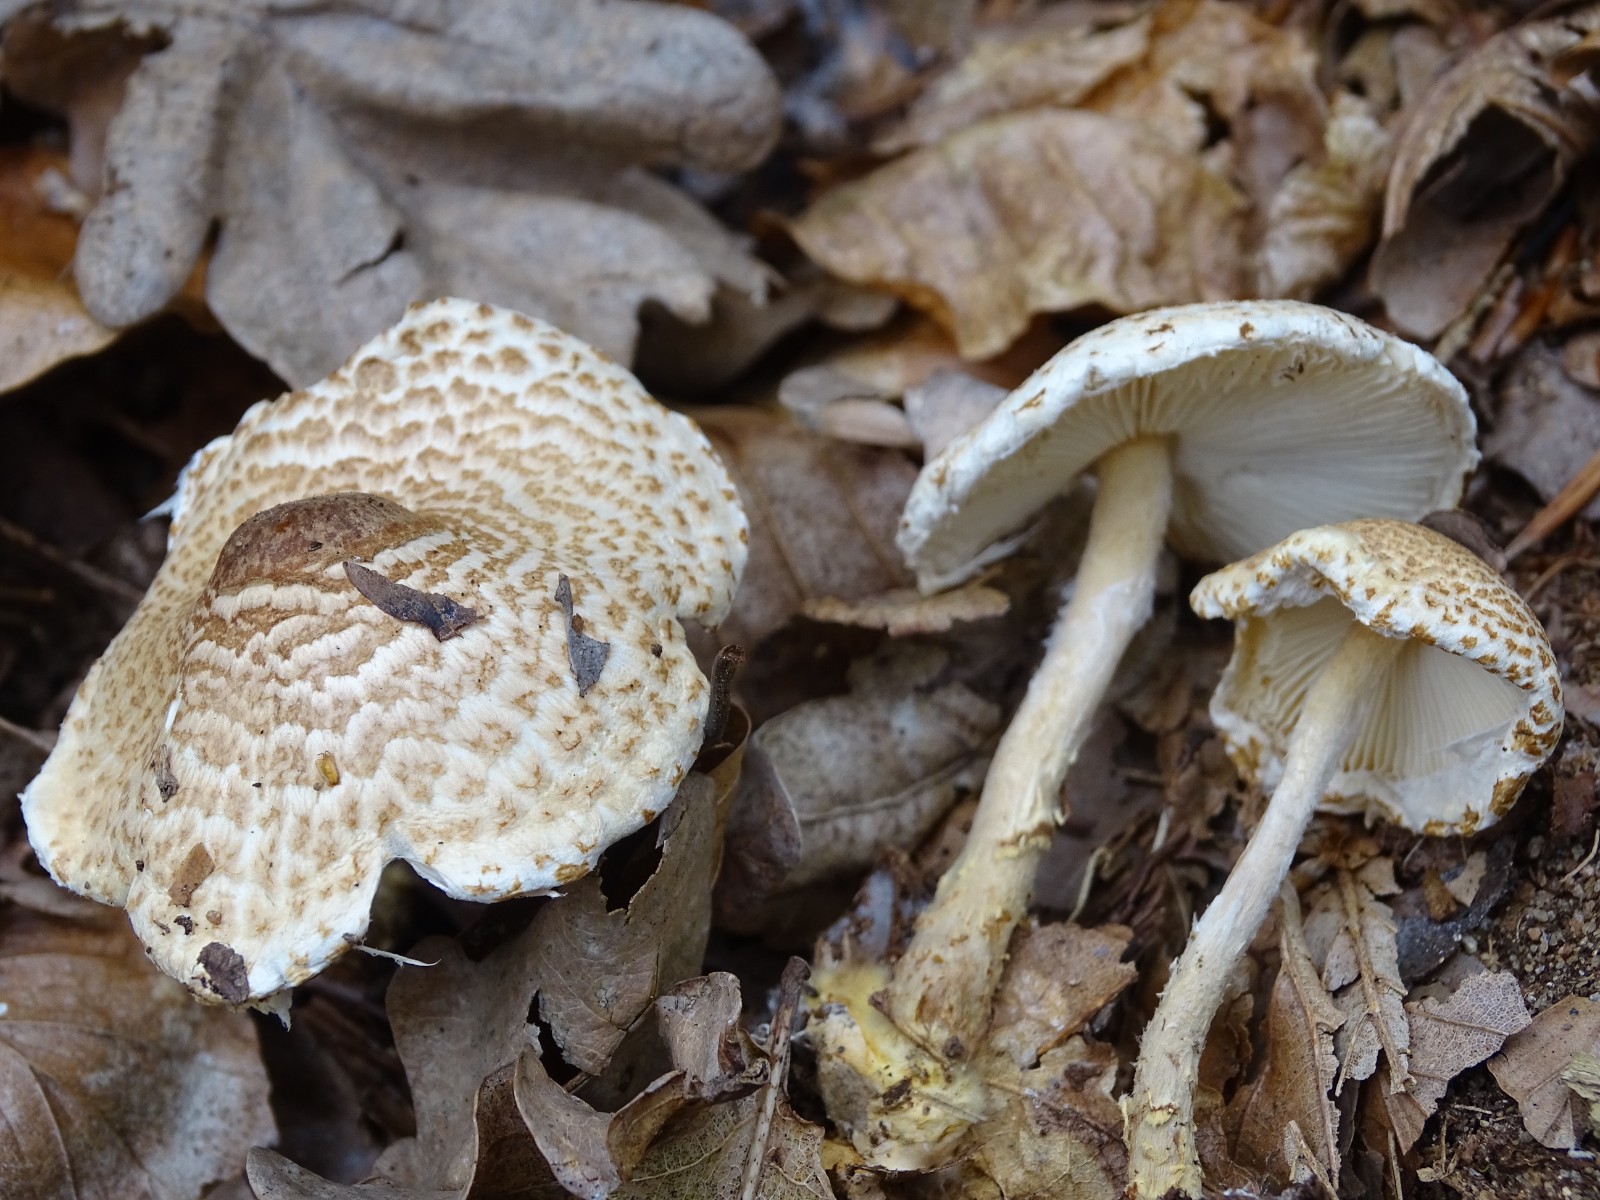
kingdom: Fungi
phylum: Basidiomycota
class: Agaricomycetes
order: Agaricales
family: Agaricaceae
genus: Lepiota
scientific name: Lepiota magnispora
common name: gulfnugget parasolhat
